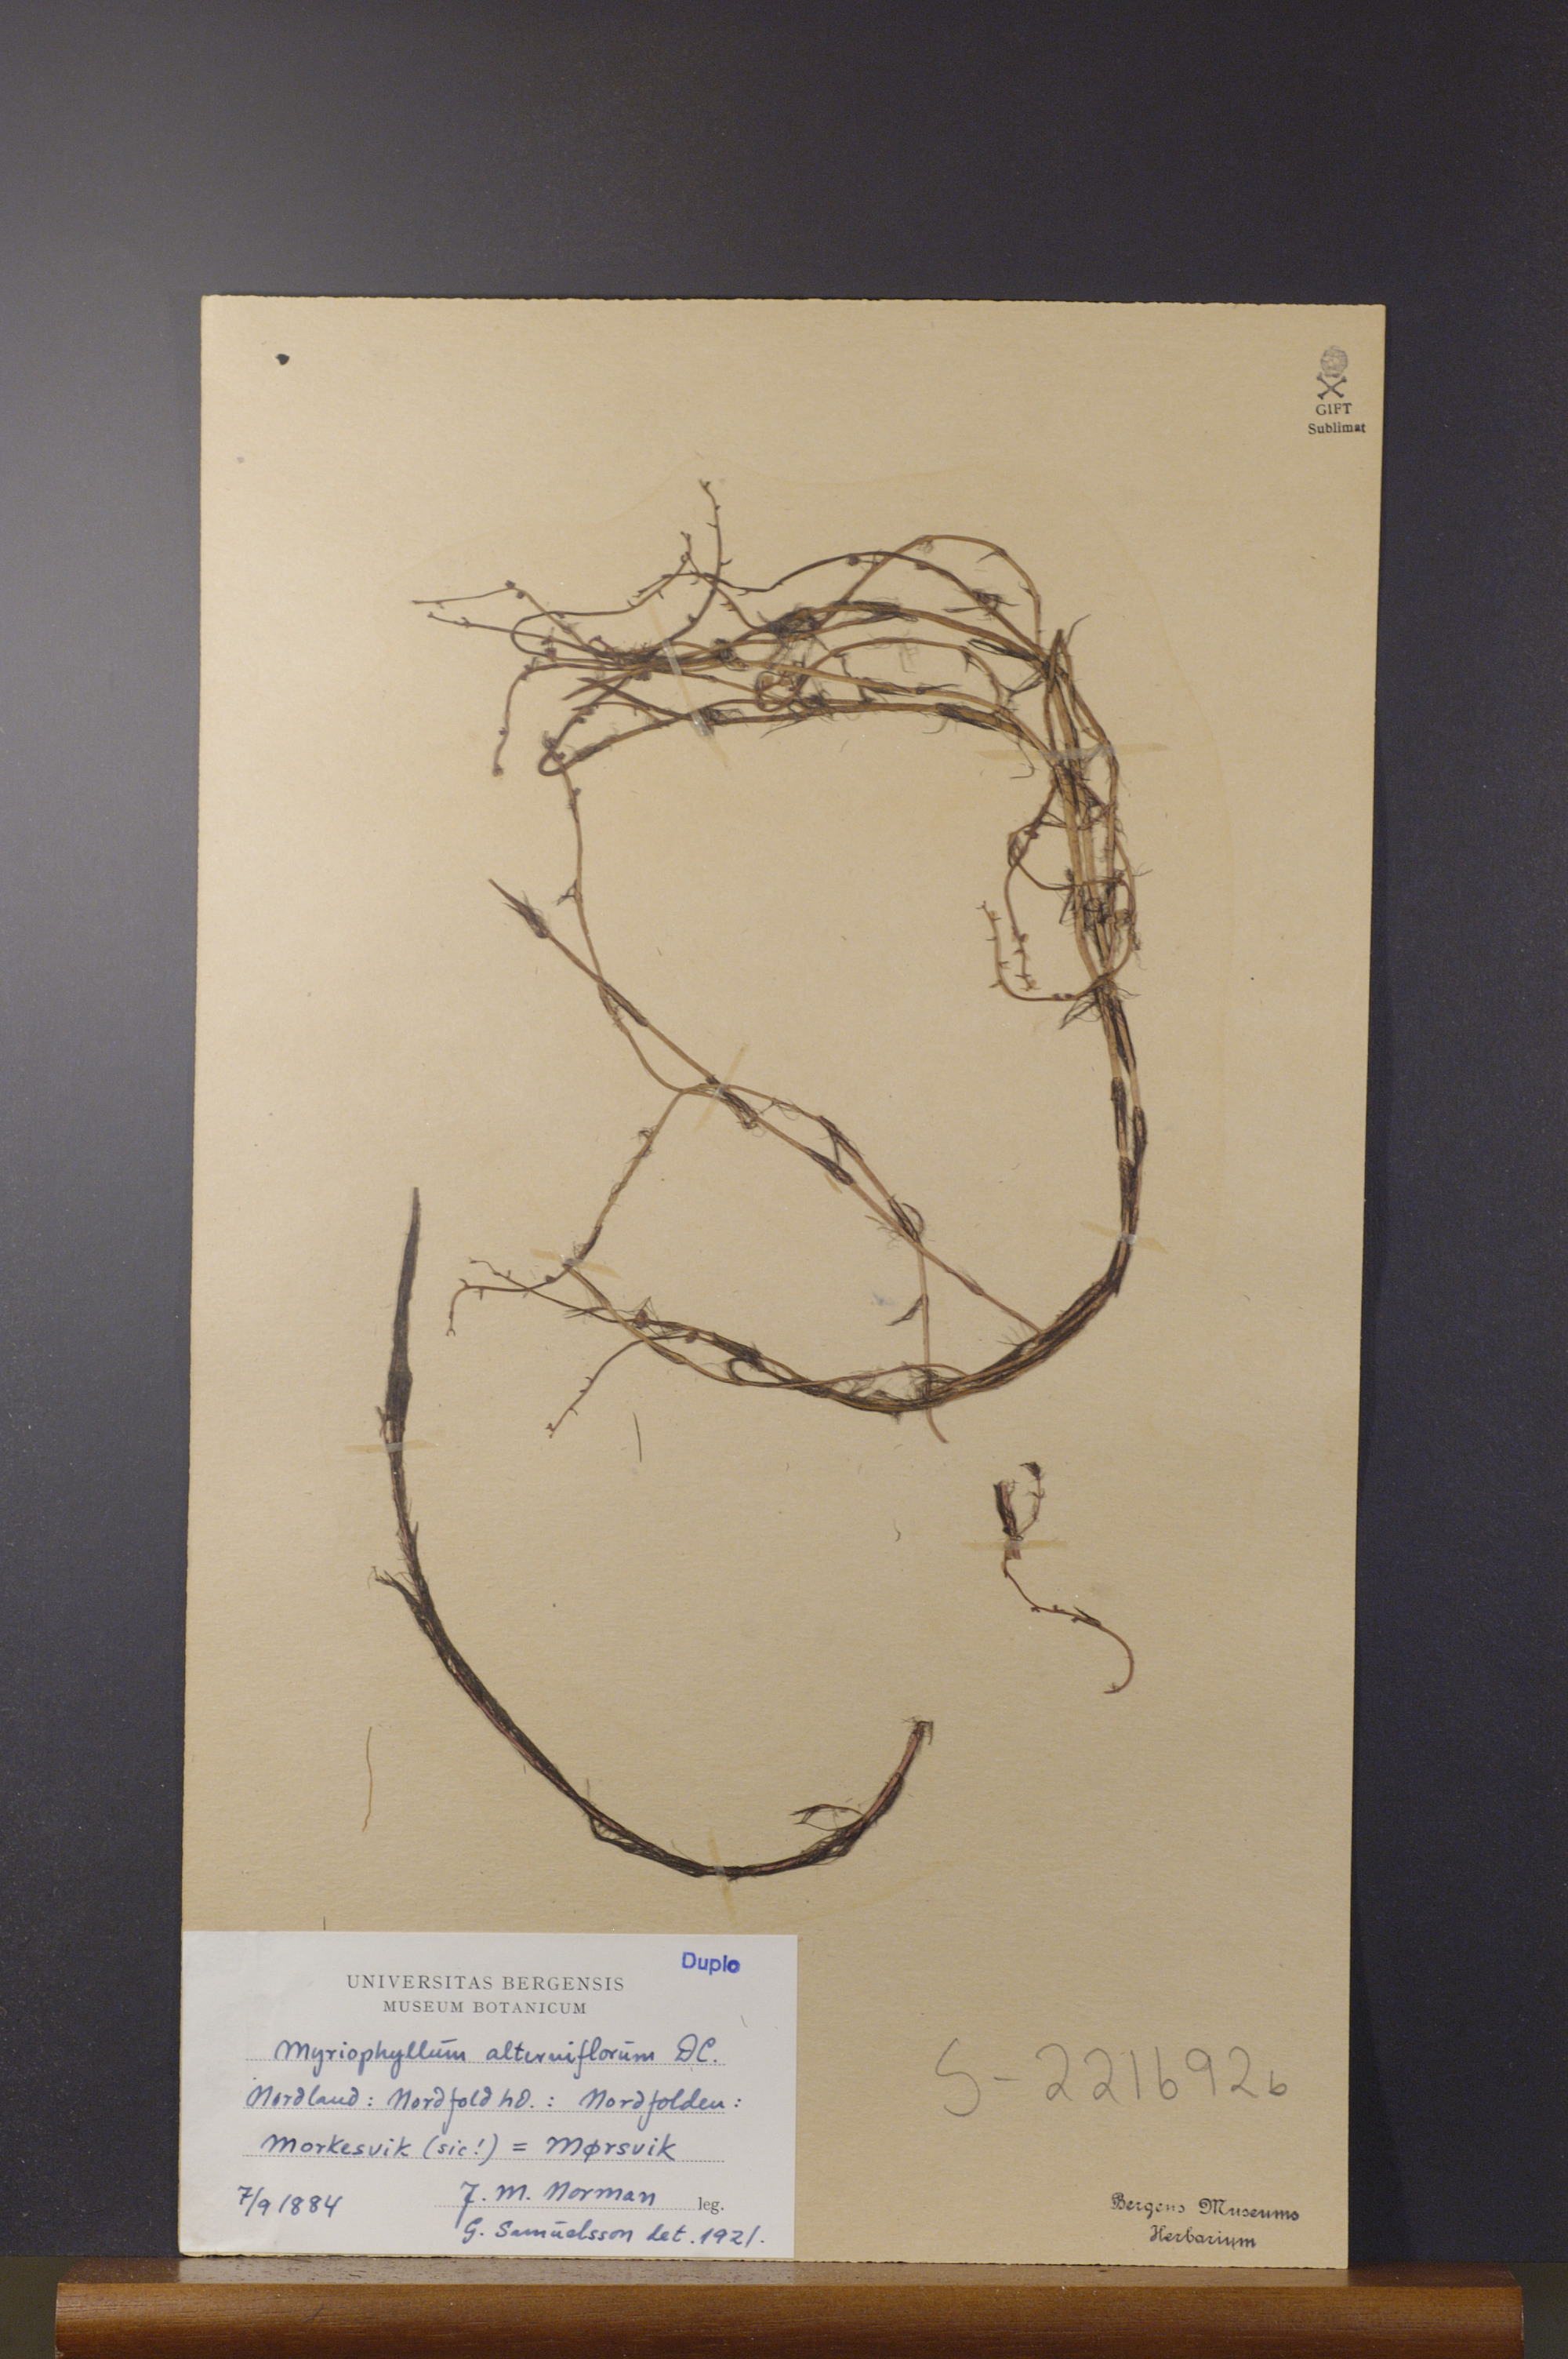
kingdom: Plantae
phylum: Tracheophyta
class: Magnoliopsida
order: Saxifragales
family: Haloragaceae
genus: Myriophyllum
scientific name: Myriophyllum alterniflorum
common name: Alternate water-milfoil
